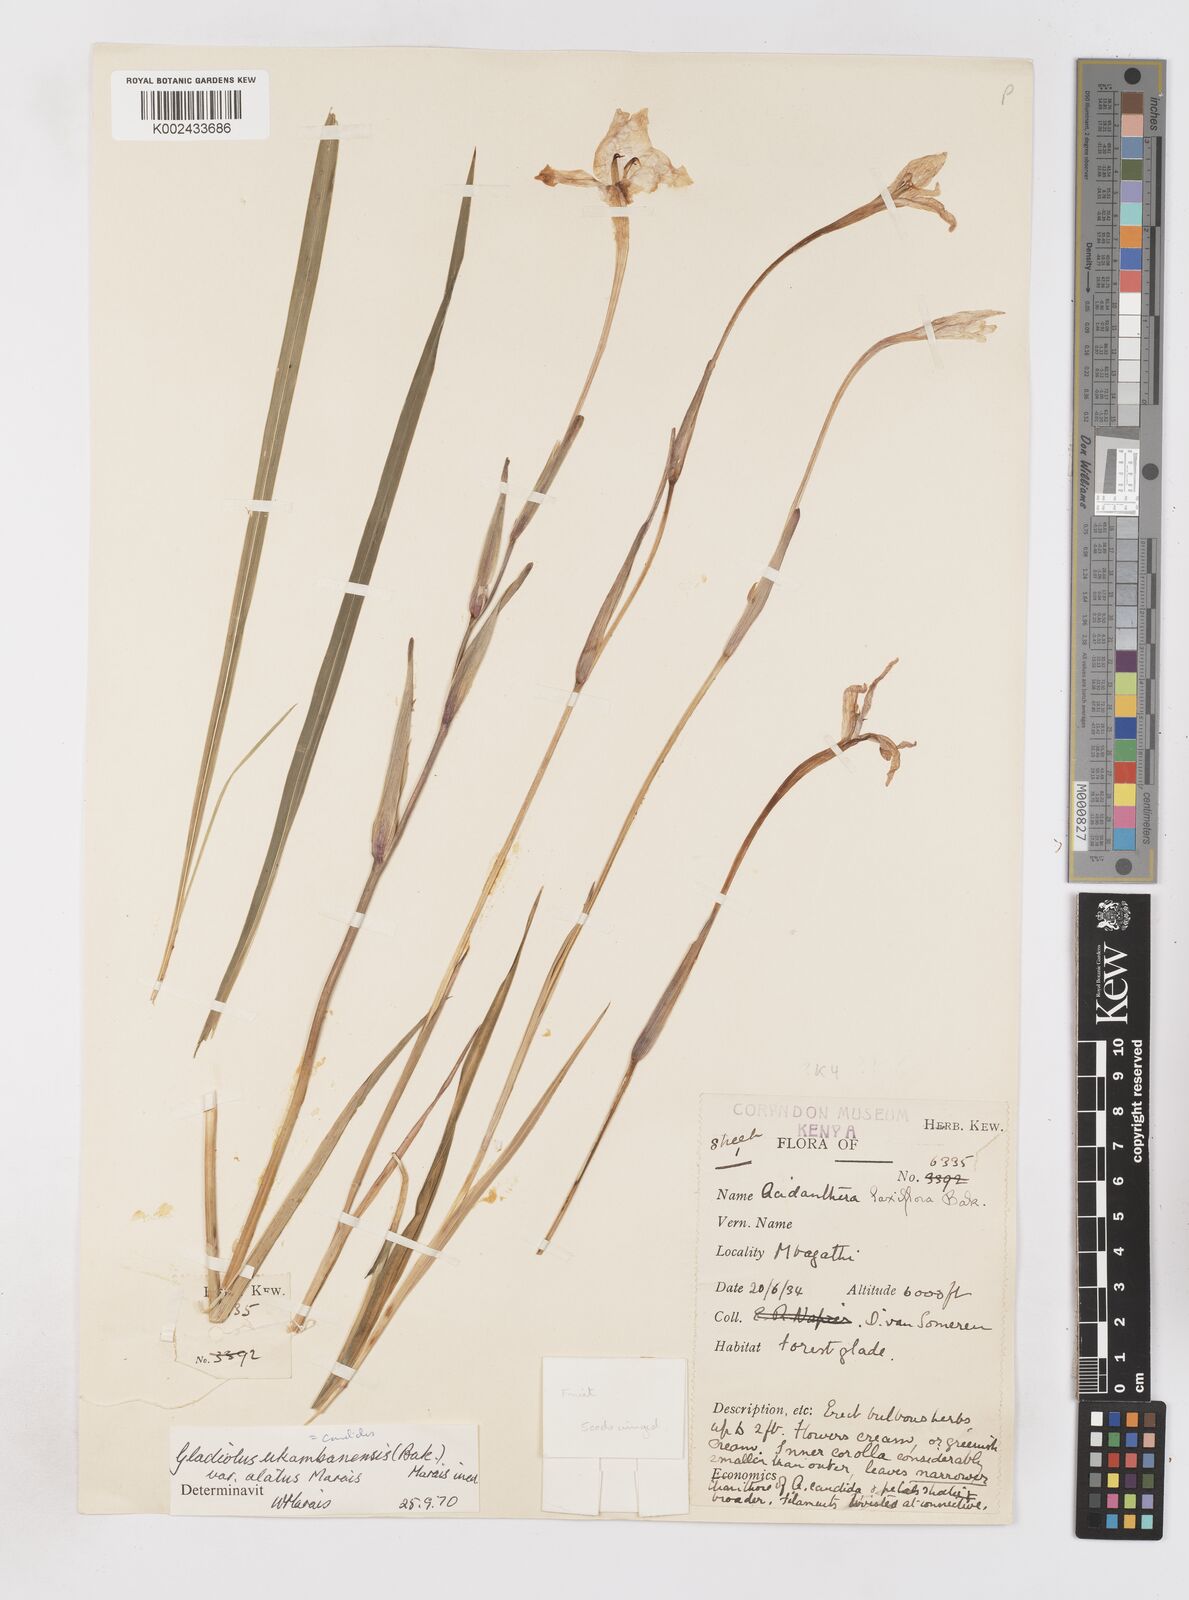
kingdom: Plantae
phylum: Tracheophyta
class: Liliopsida
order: Asparagales
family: Iridaceae
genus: Gladiolus
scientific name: Gladiolus candidus
